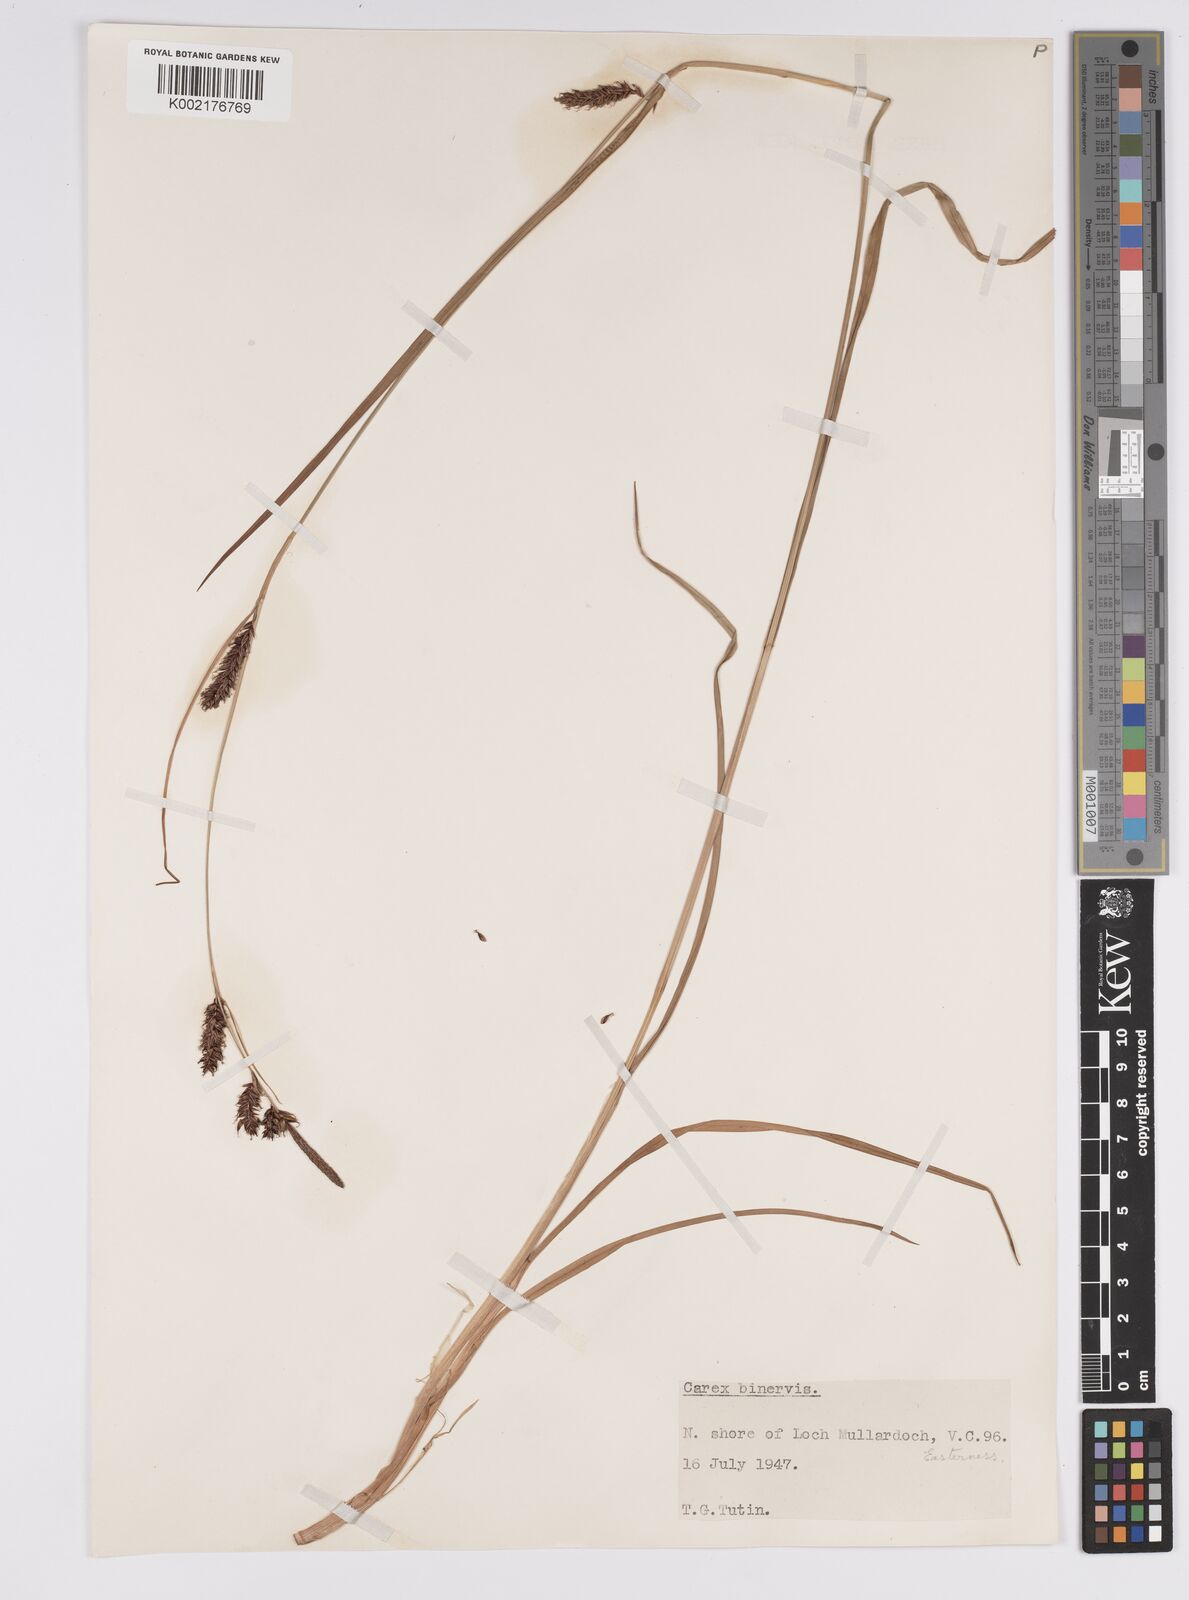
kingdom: Plantae
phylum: Tracheophyta
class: Liliopsida
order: Poales
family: Cyperaceae
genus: Carex
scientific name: Carex binervis
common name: Green-ribbed sedge
